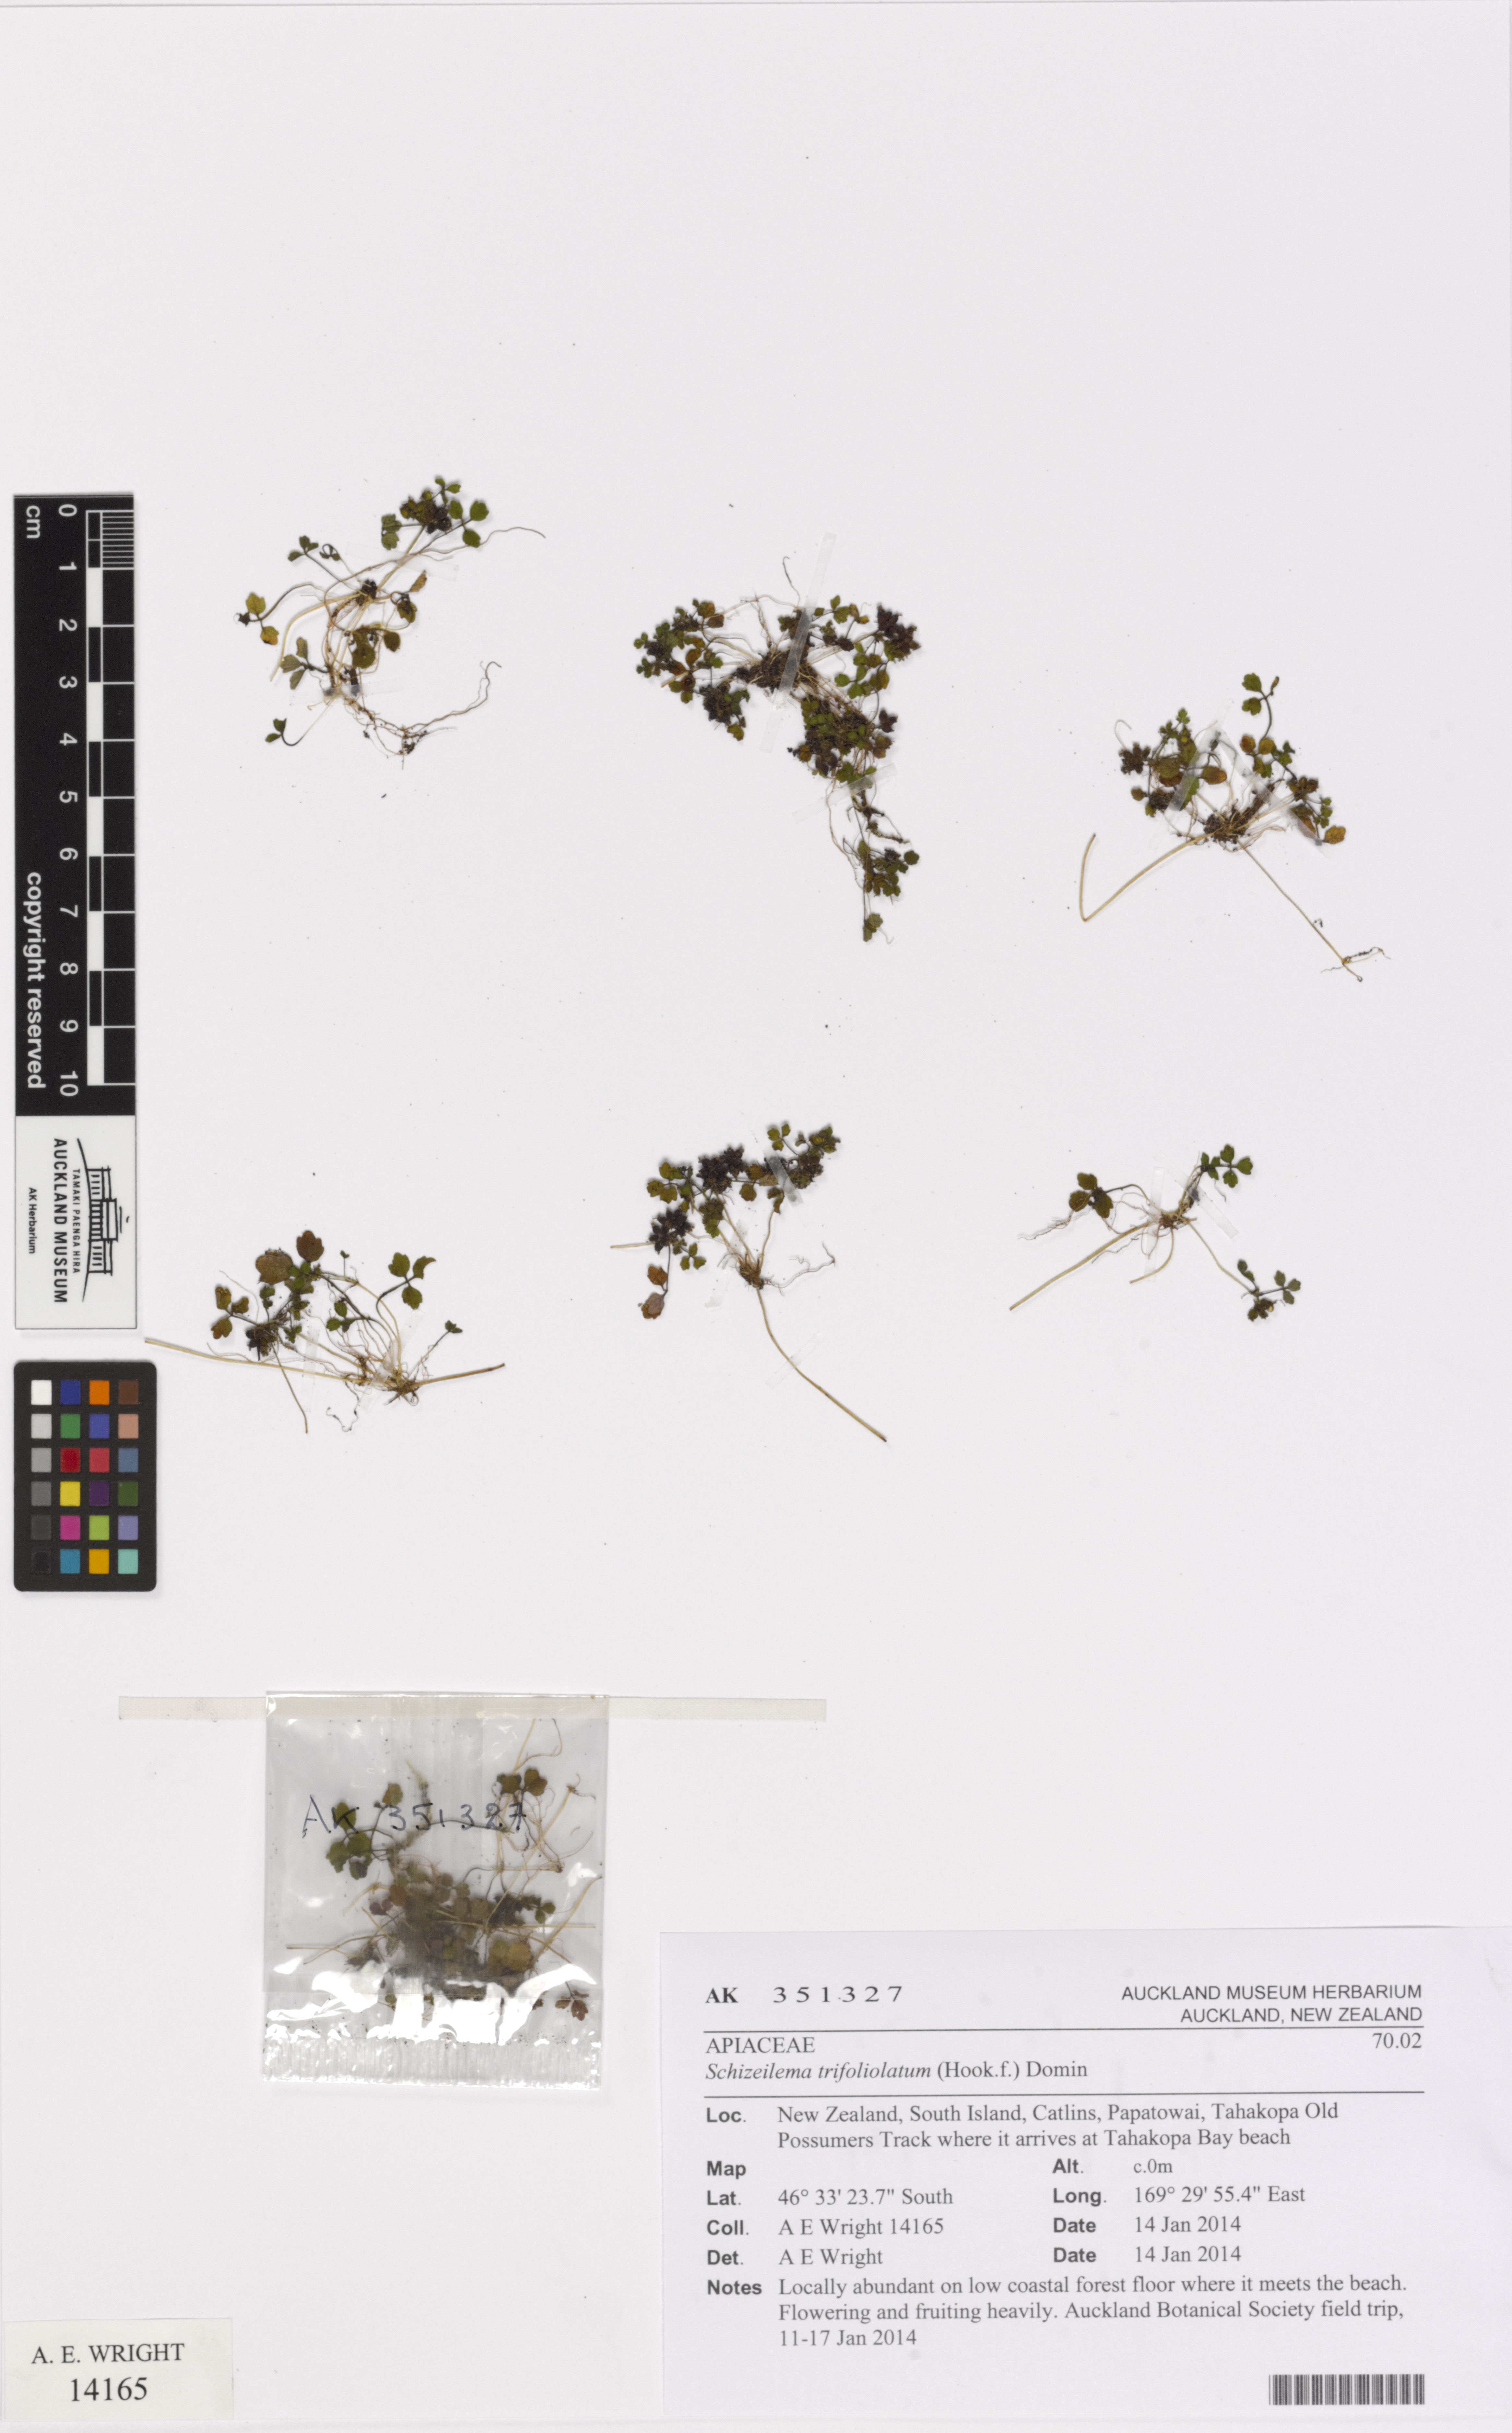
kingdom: Plantae
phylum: Tracheophyta
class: Magnoliopsida
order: Apiales
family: Apiaceae
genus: Azorella
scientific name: Azorella hookeri
